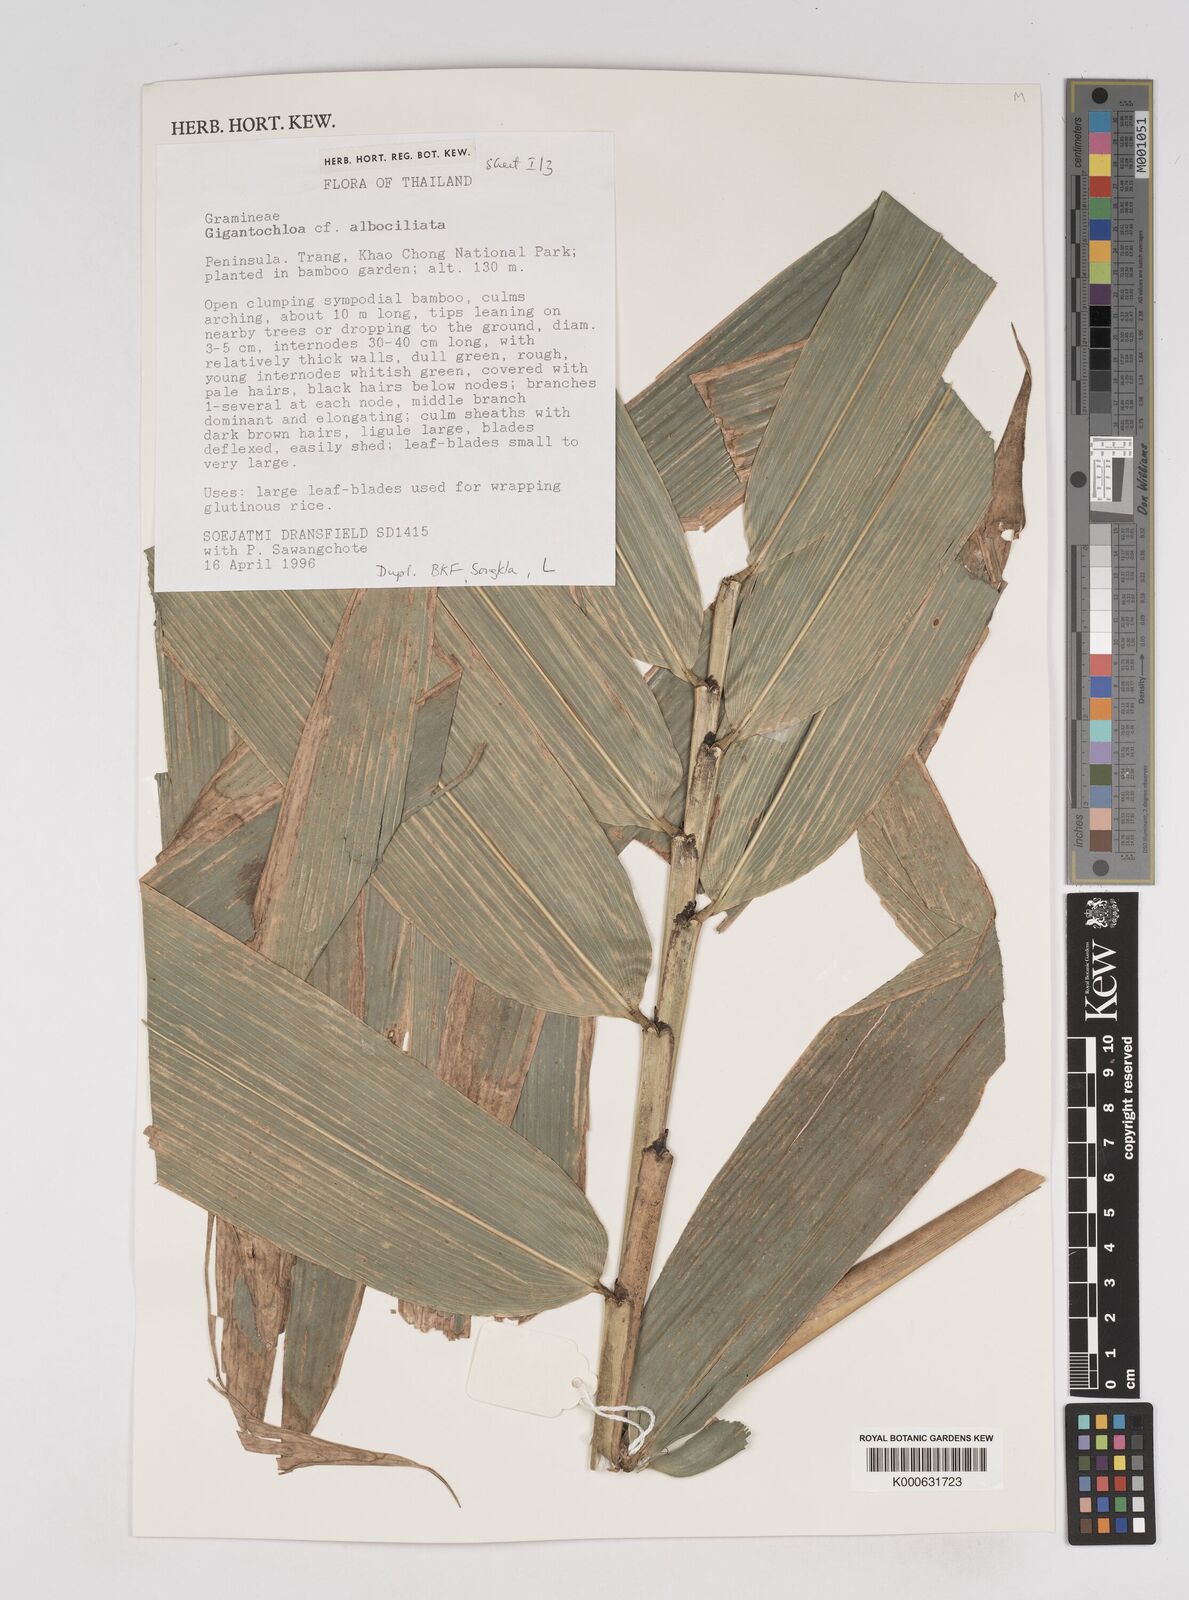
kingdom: Plantae
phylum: Tracheophyta
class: Liliopsida
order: Poales
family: Poaceae
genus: Gigantochloa
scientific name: Gigantochloa albociliata
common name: White-fringe gigantochloa
